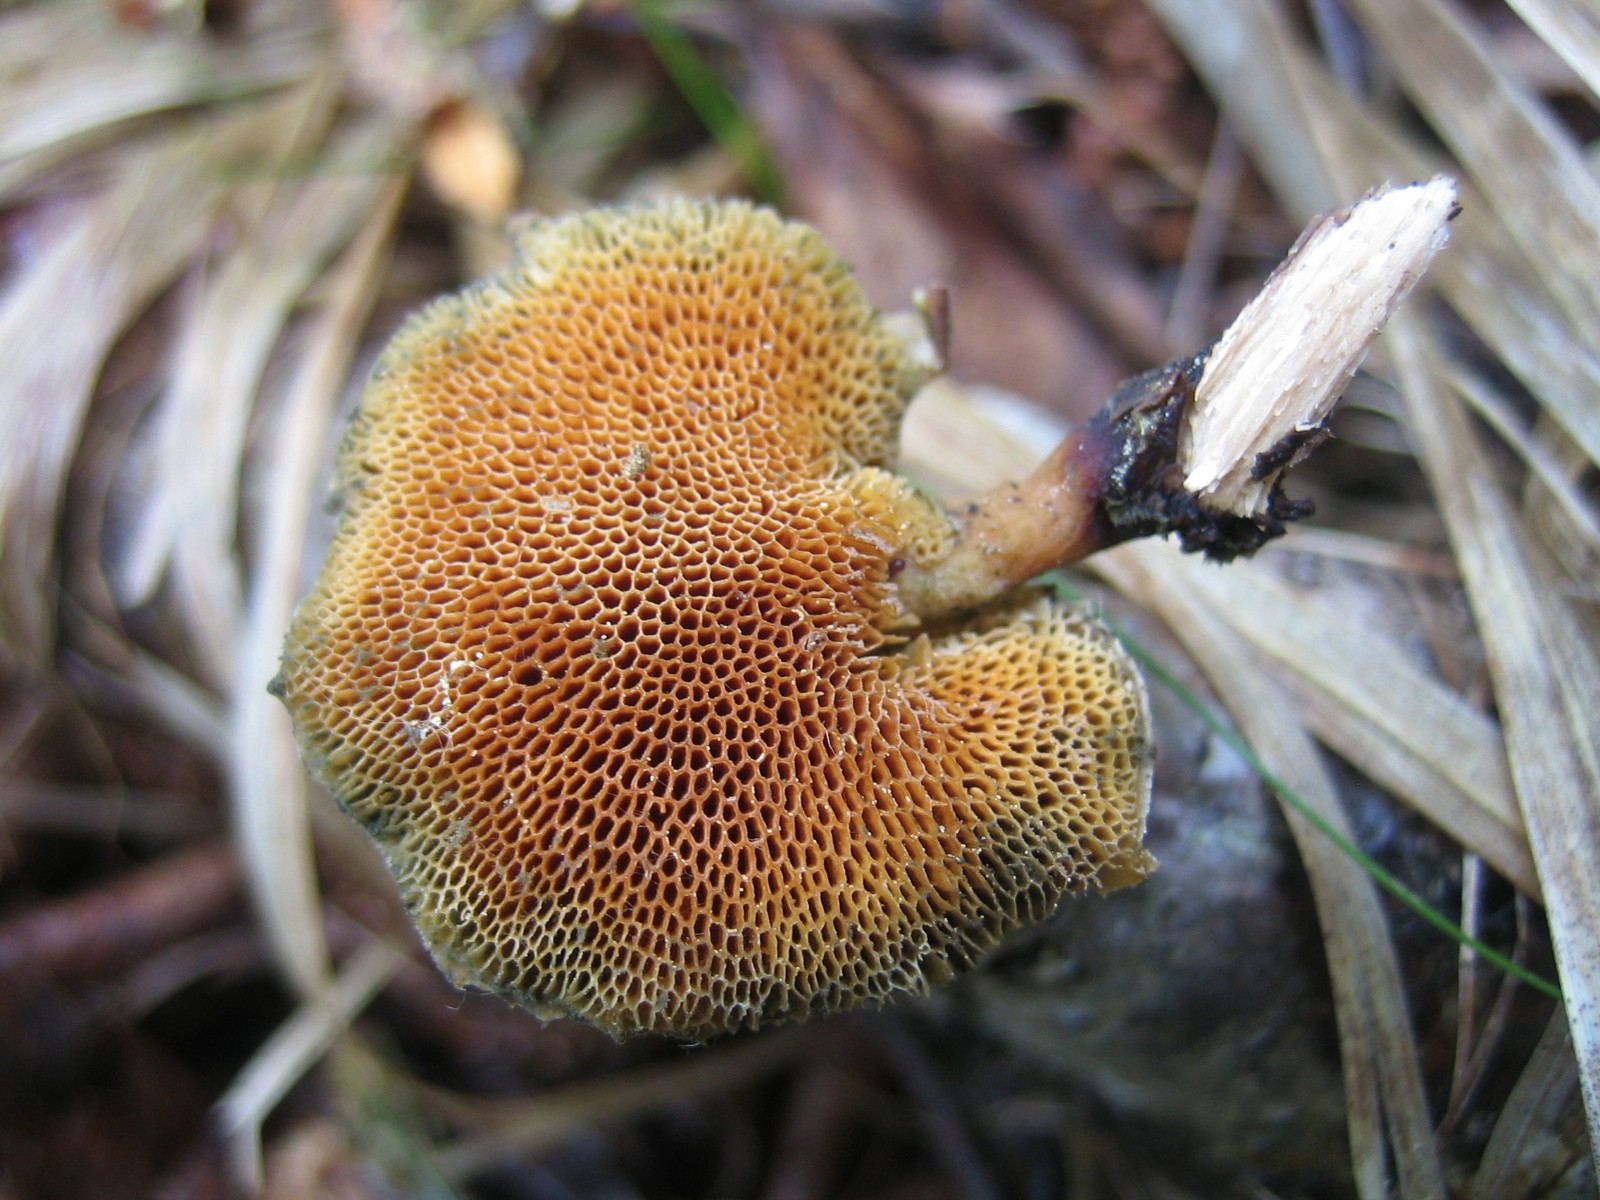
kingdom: Fungi
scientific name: Fungi
